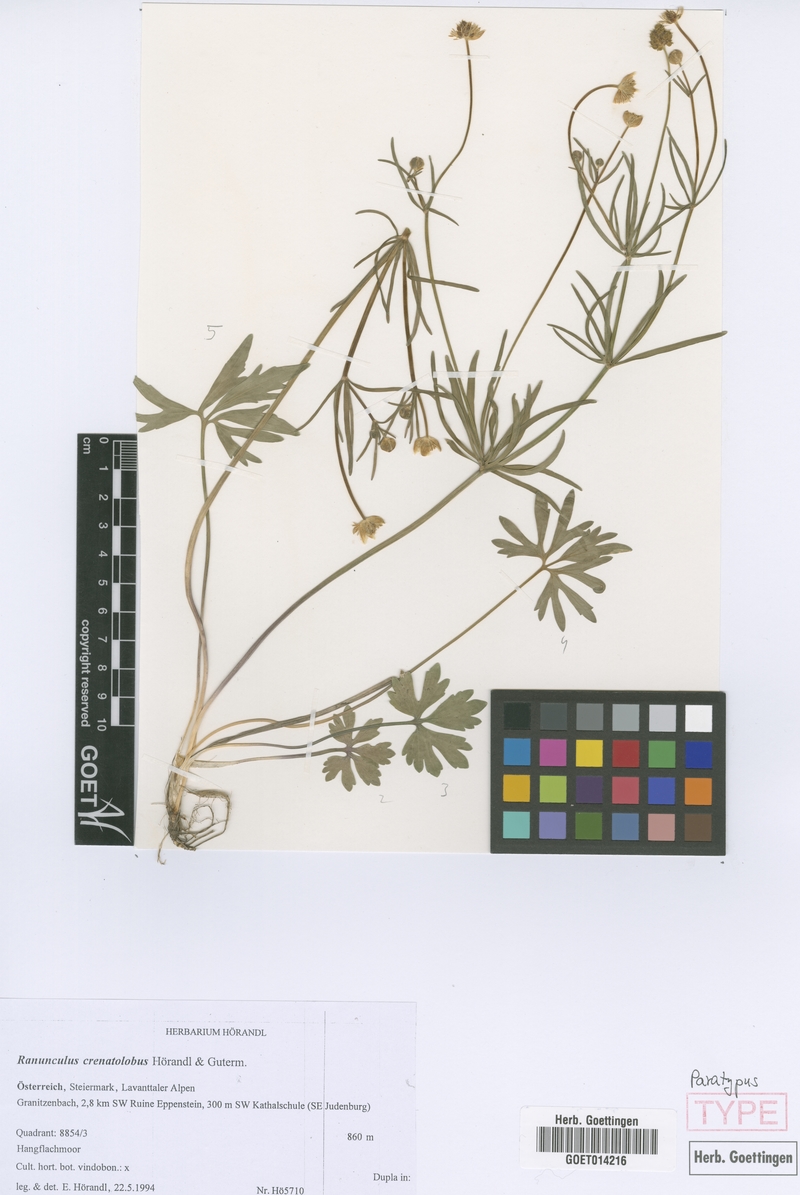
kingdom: Plantae
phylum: Tracheophyta
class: Magnoliopsida
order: Ranunculales
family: Ranunculaceae
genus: Ranunculus
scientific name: Ranunculus crenatolobus
